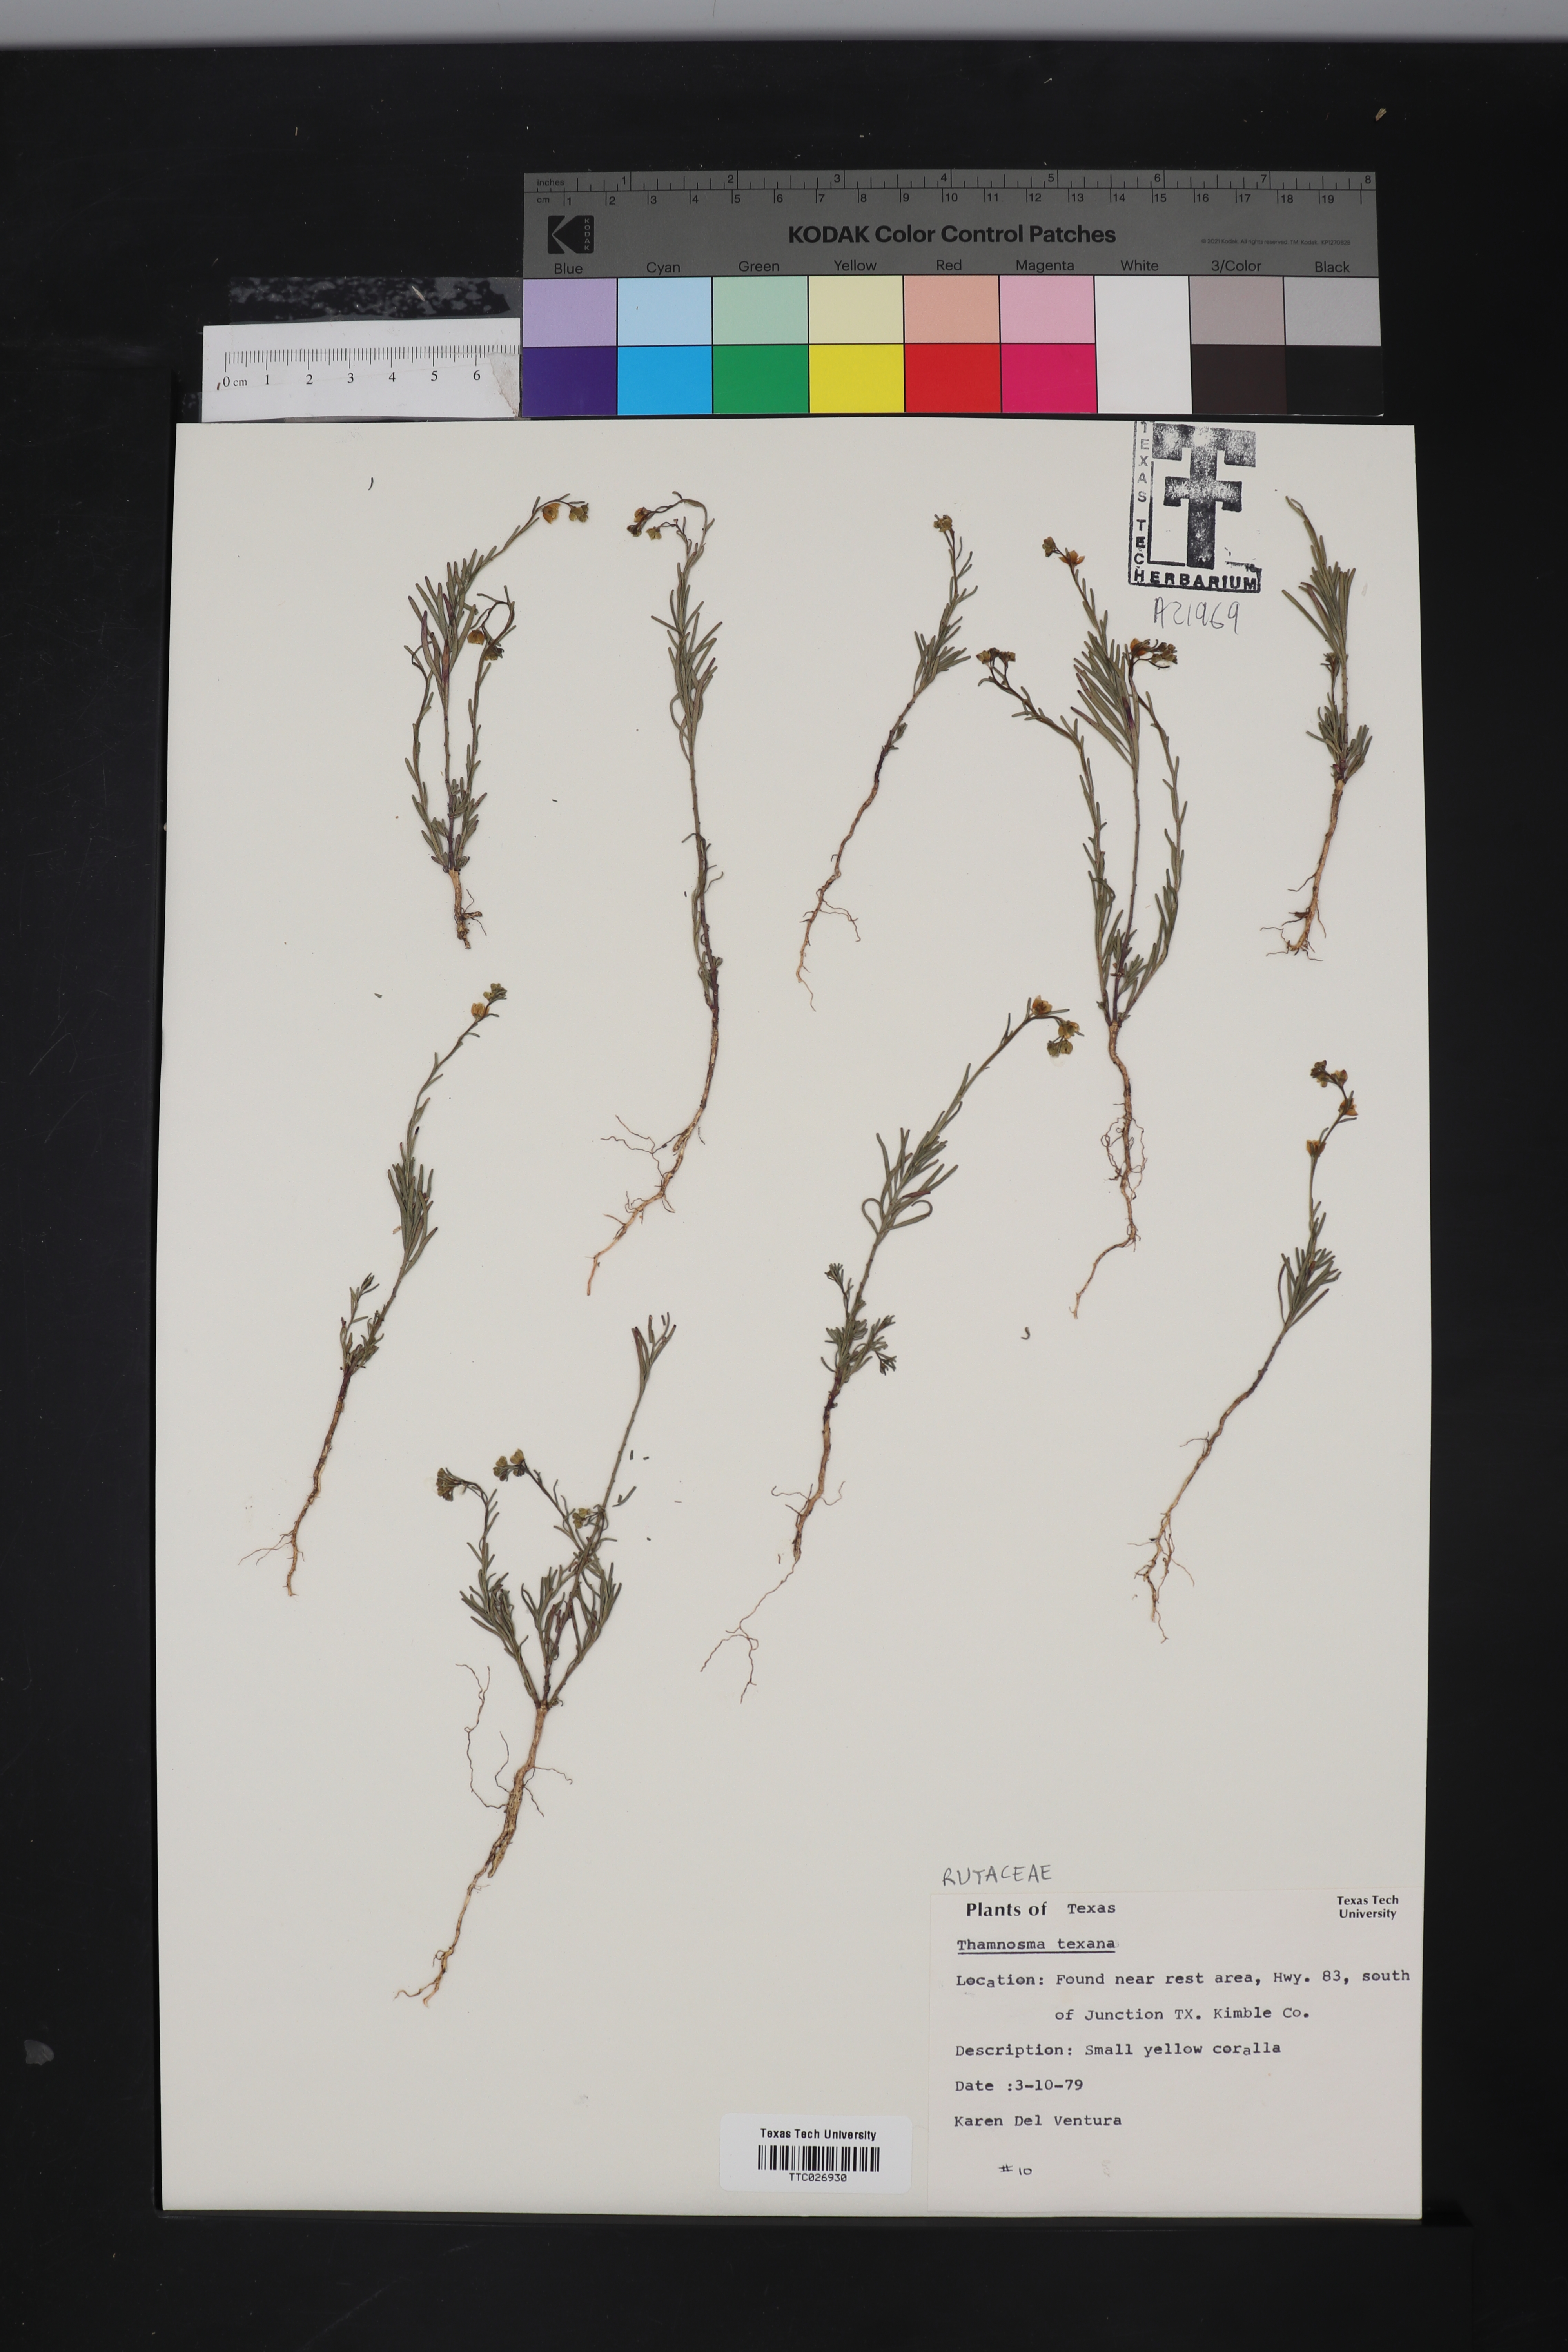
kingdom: Plantae
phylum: Tracheophyta
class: Magnoliopsida
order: Sapindales
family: Rutaceae
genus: Thamnosma
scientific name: Thamnosma texana
